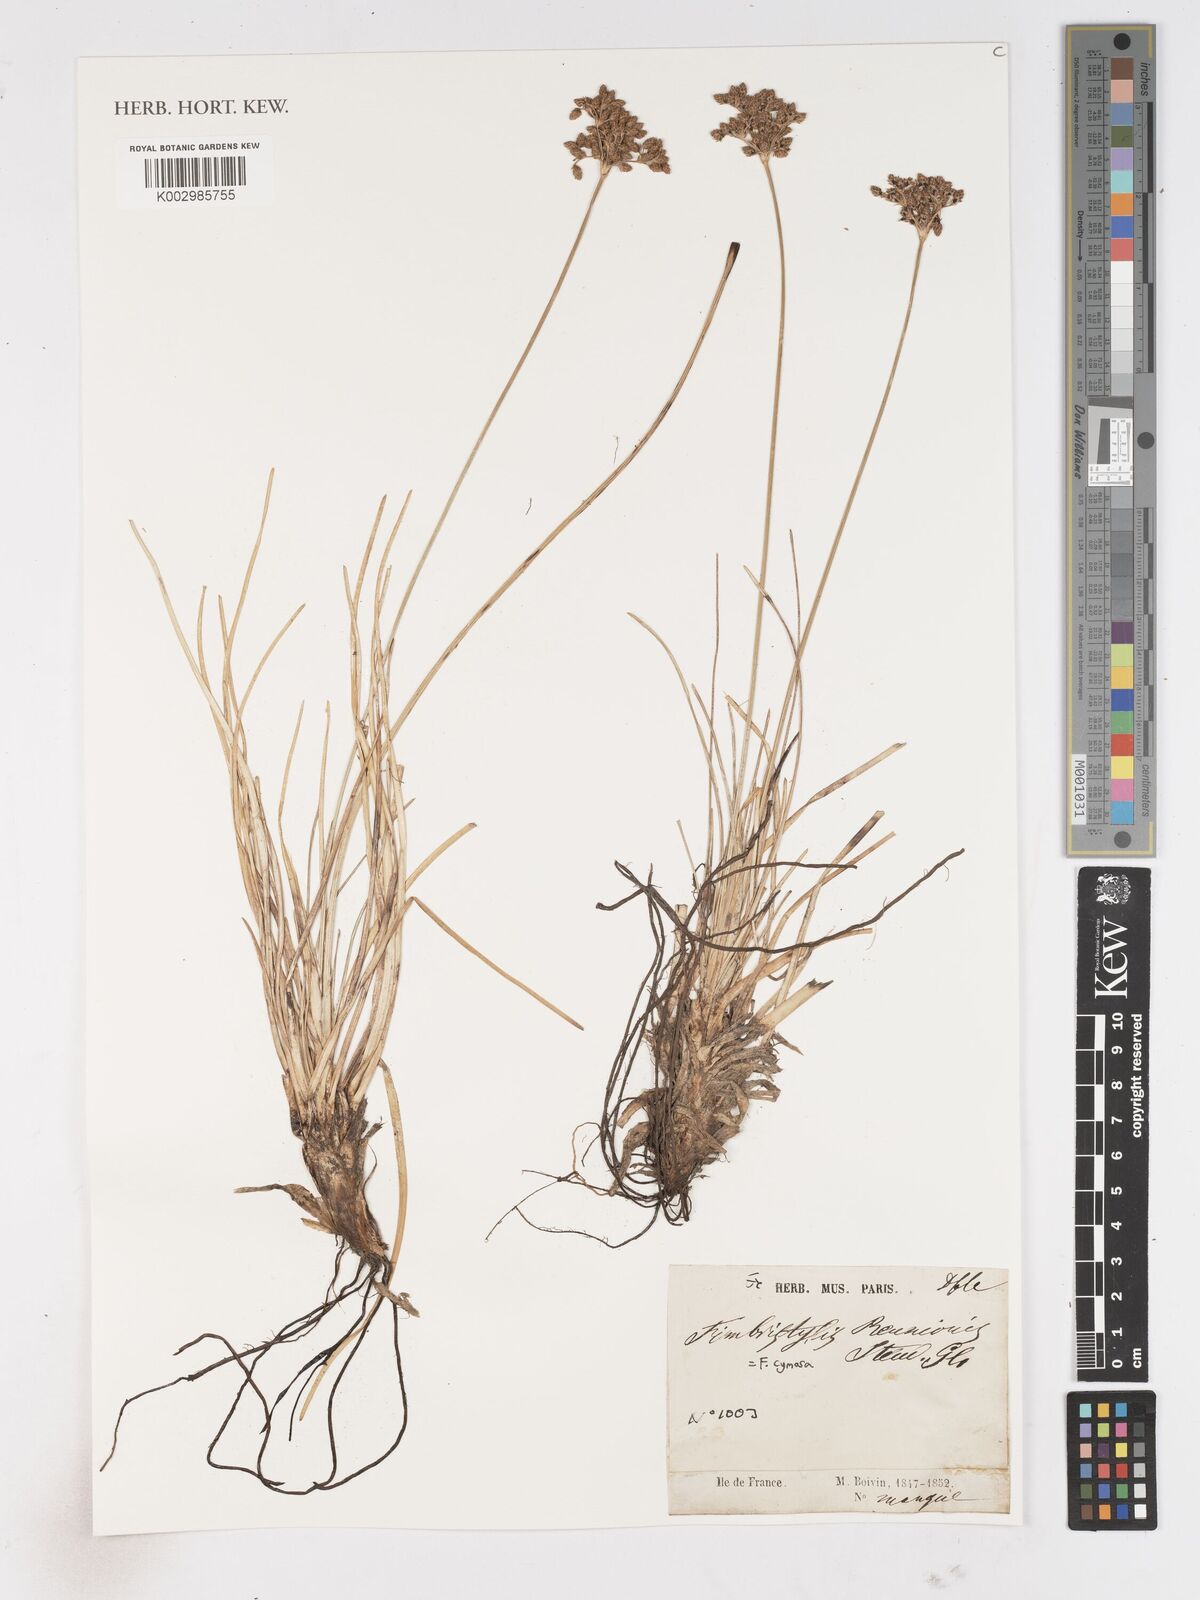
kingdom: Plantae
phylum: Tracheophyta
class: Liliopsida
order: Poales
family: Cyperaceae
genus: Fimbristylis
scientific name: Fimbristylis cymosa
